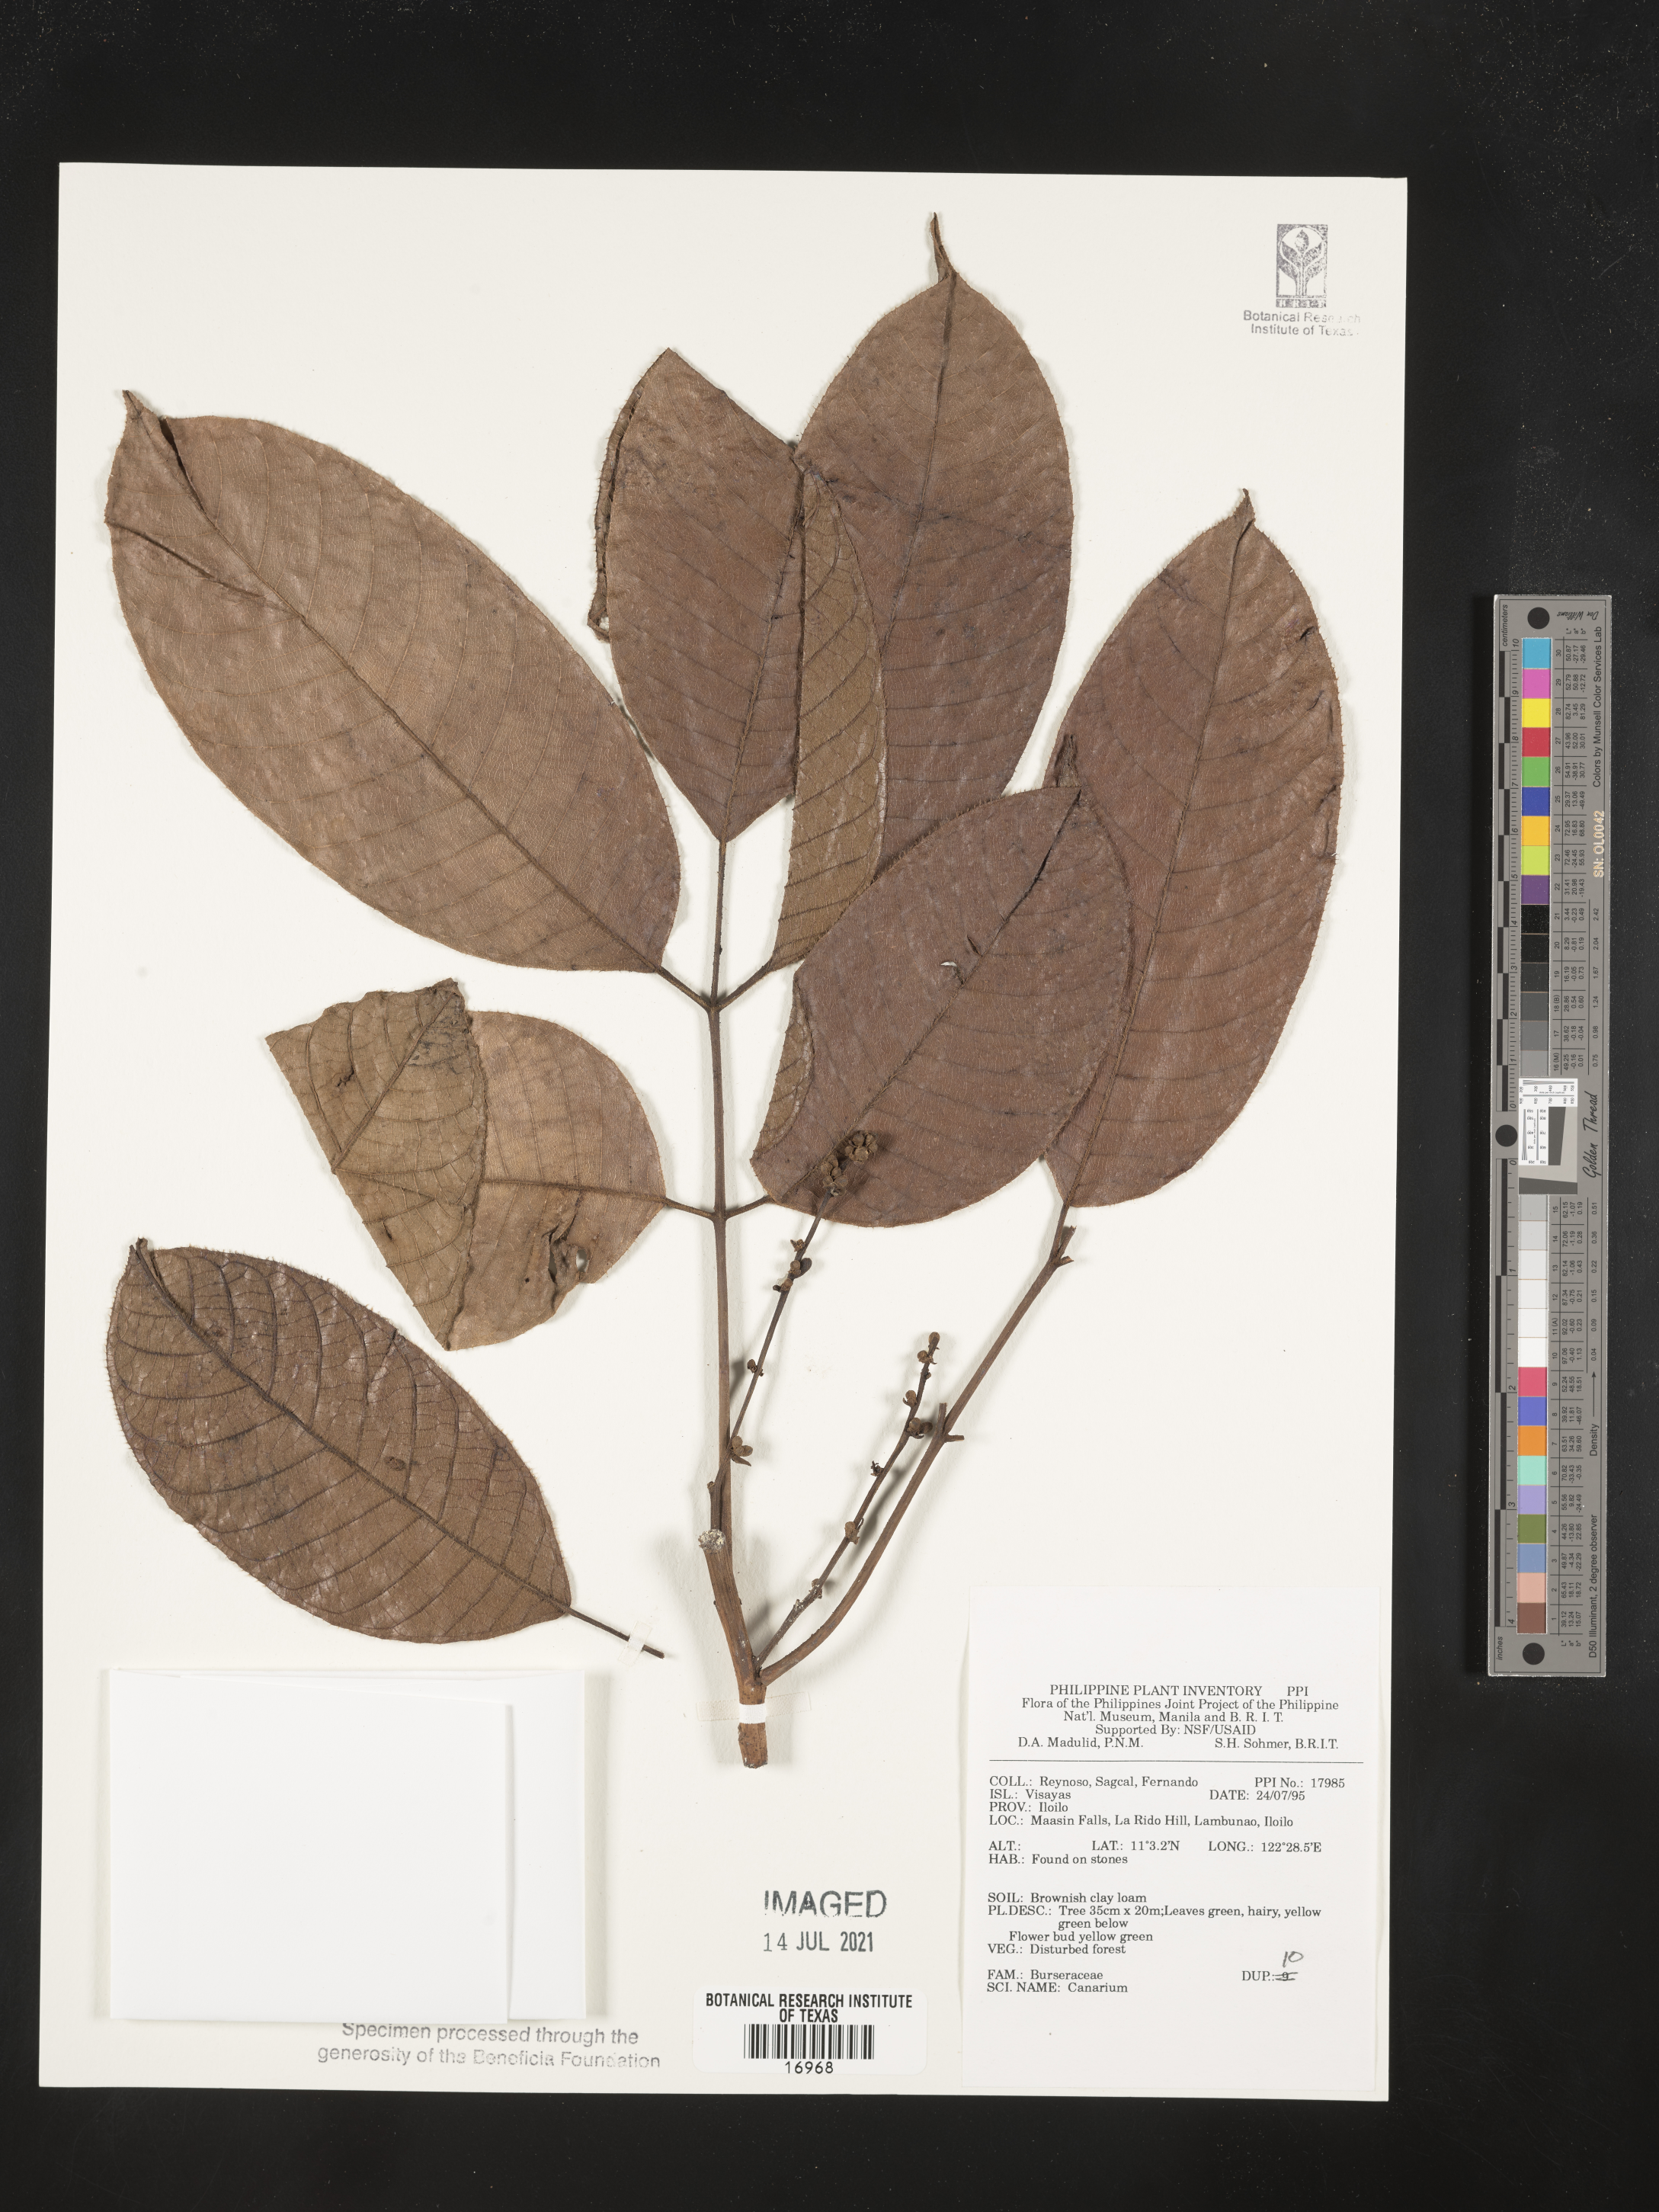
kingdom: Plantae
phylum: Tracheophyta
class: Magnoliopsida
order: Sapindales
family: Burseraceae
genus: Canarium
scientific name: Canarium
